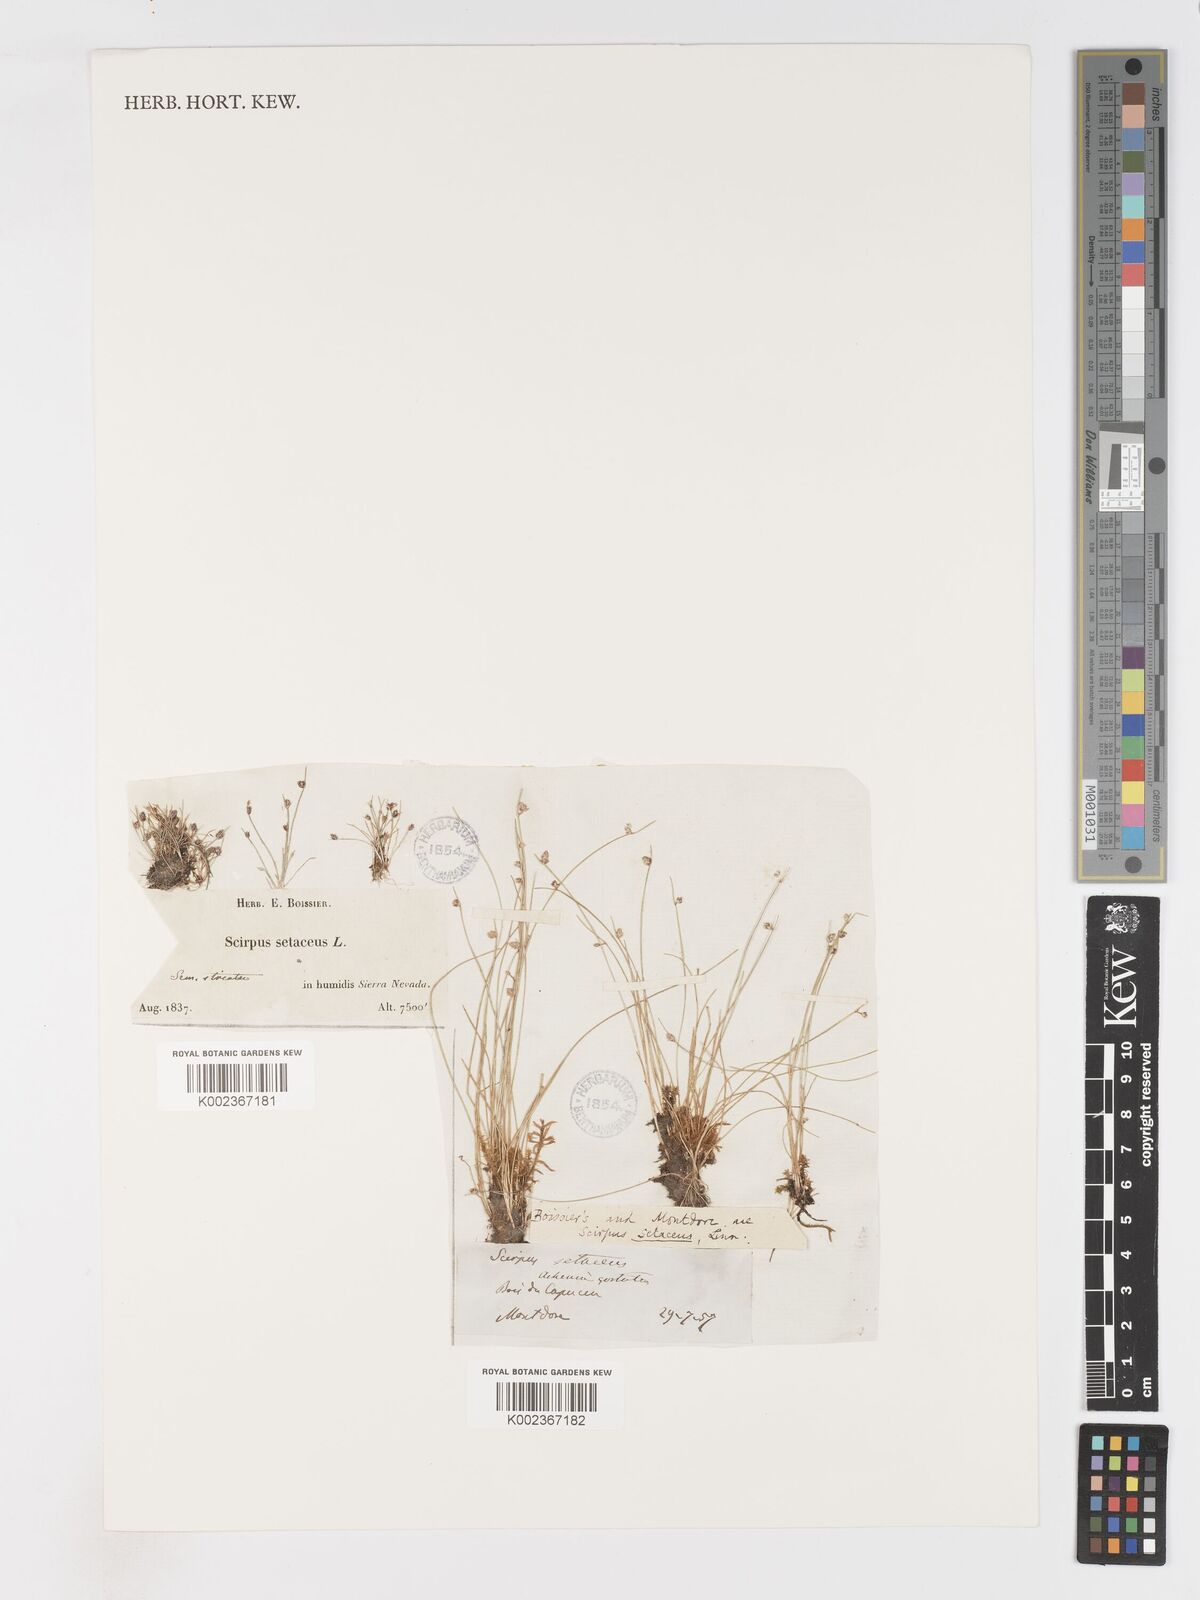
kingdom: Plantae
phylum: Tracheophyta
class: Liliopsida
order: Poales
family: Cyperaceae
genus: Isolepis
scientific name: Isolepis setacea
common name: Bristle club-rush
